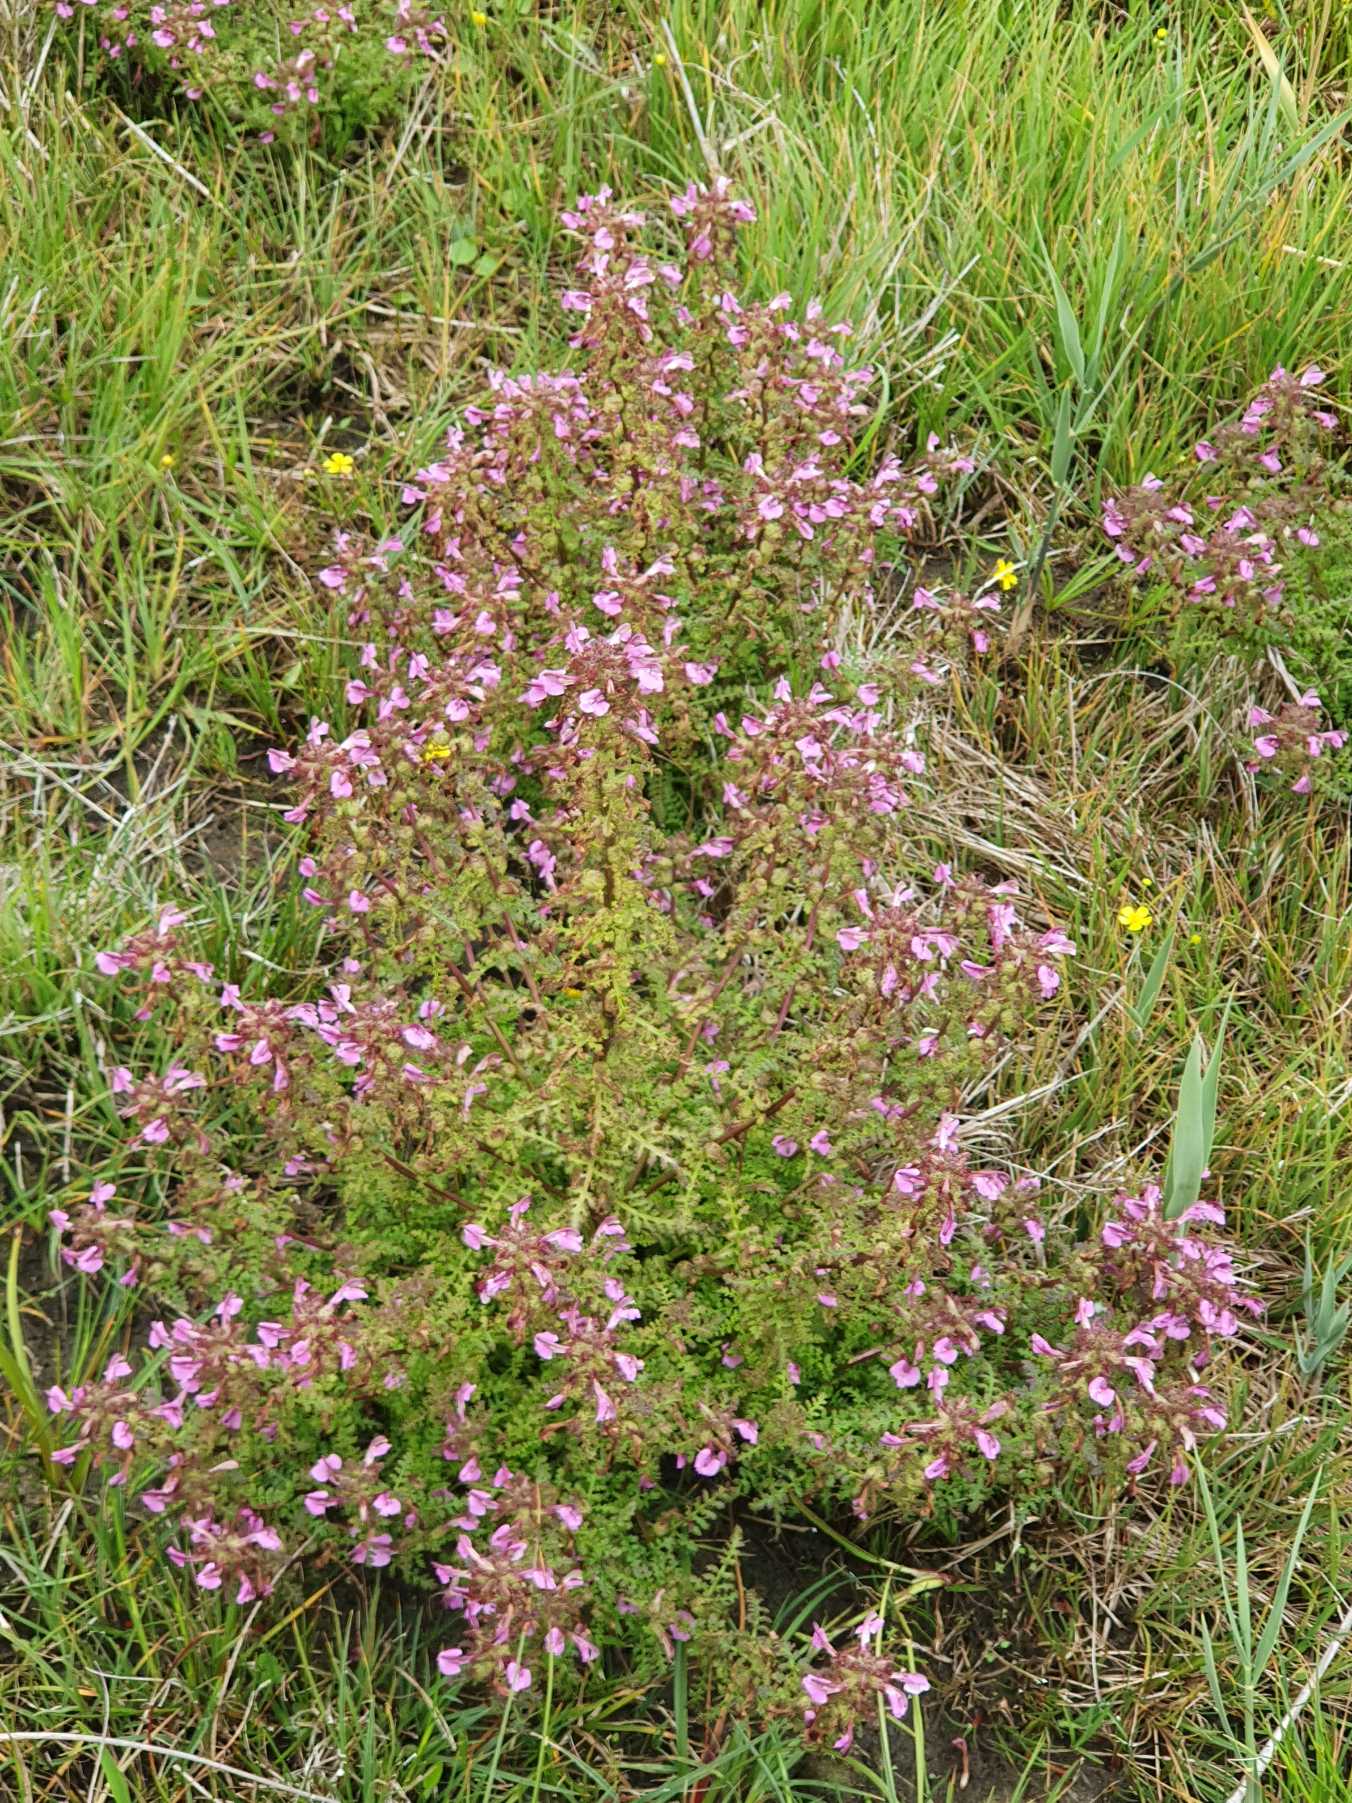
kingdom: Plantae
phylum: Tracheophyta
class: Magnoliopsida
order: Lamiales
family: Orobanchaceae
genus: Pedicularis
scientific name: Pedicularis palustris
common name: Eng-troldurt
